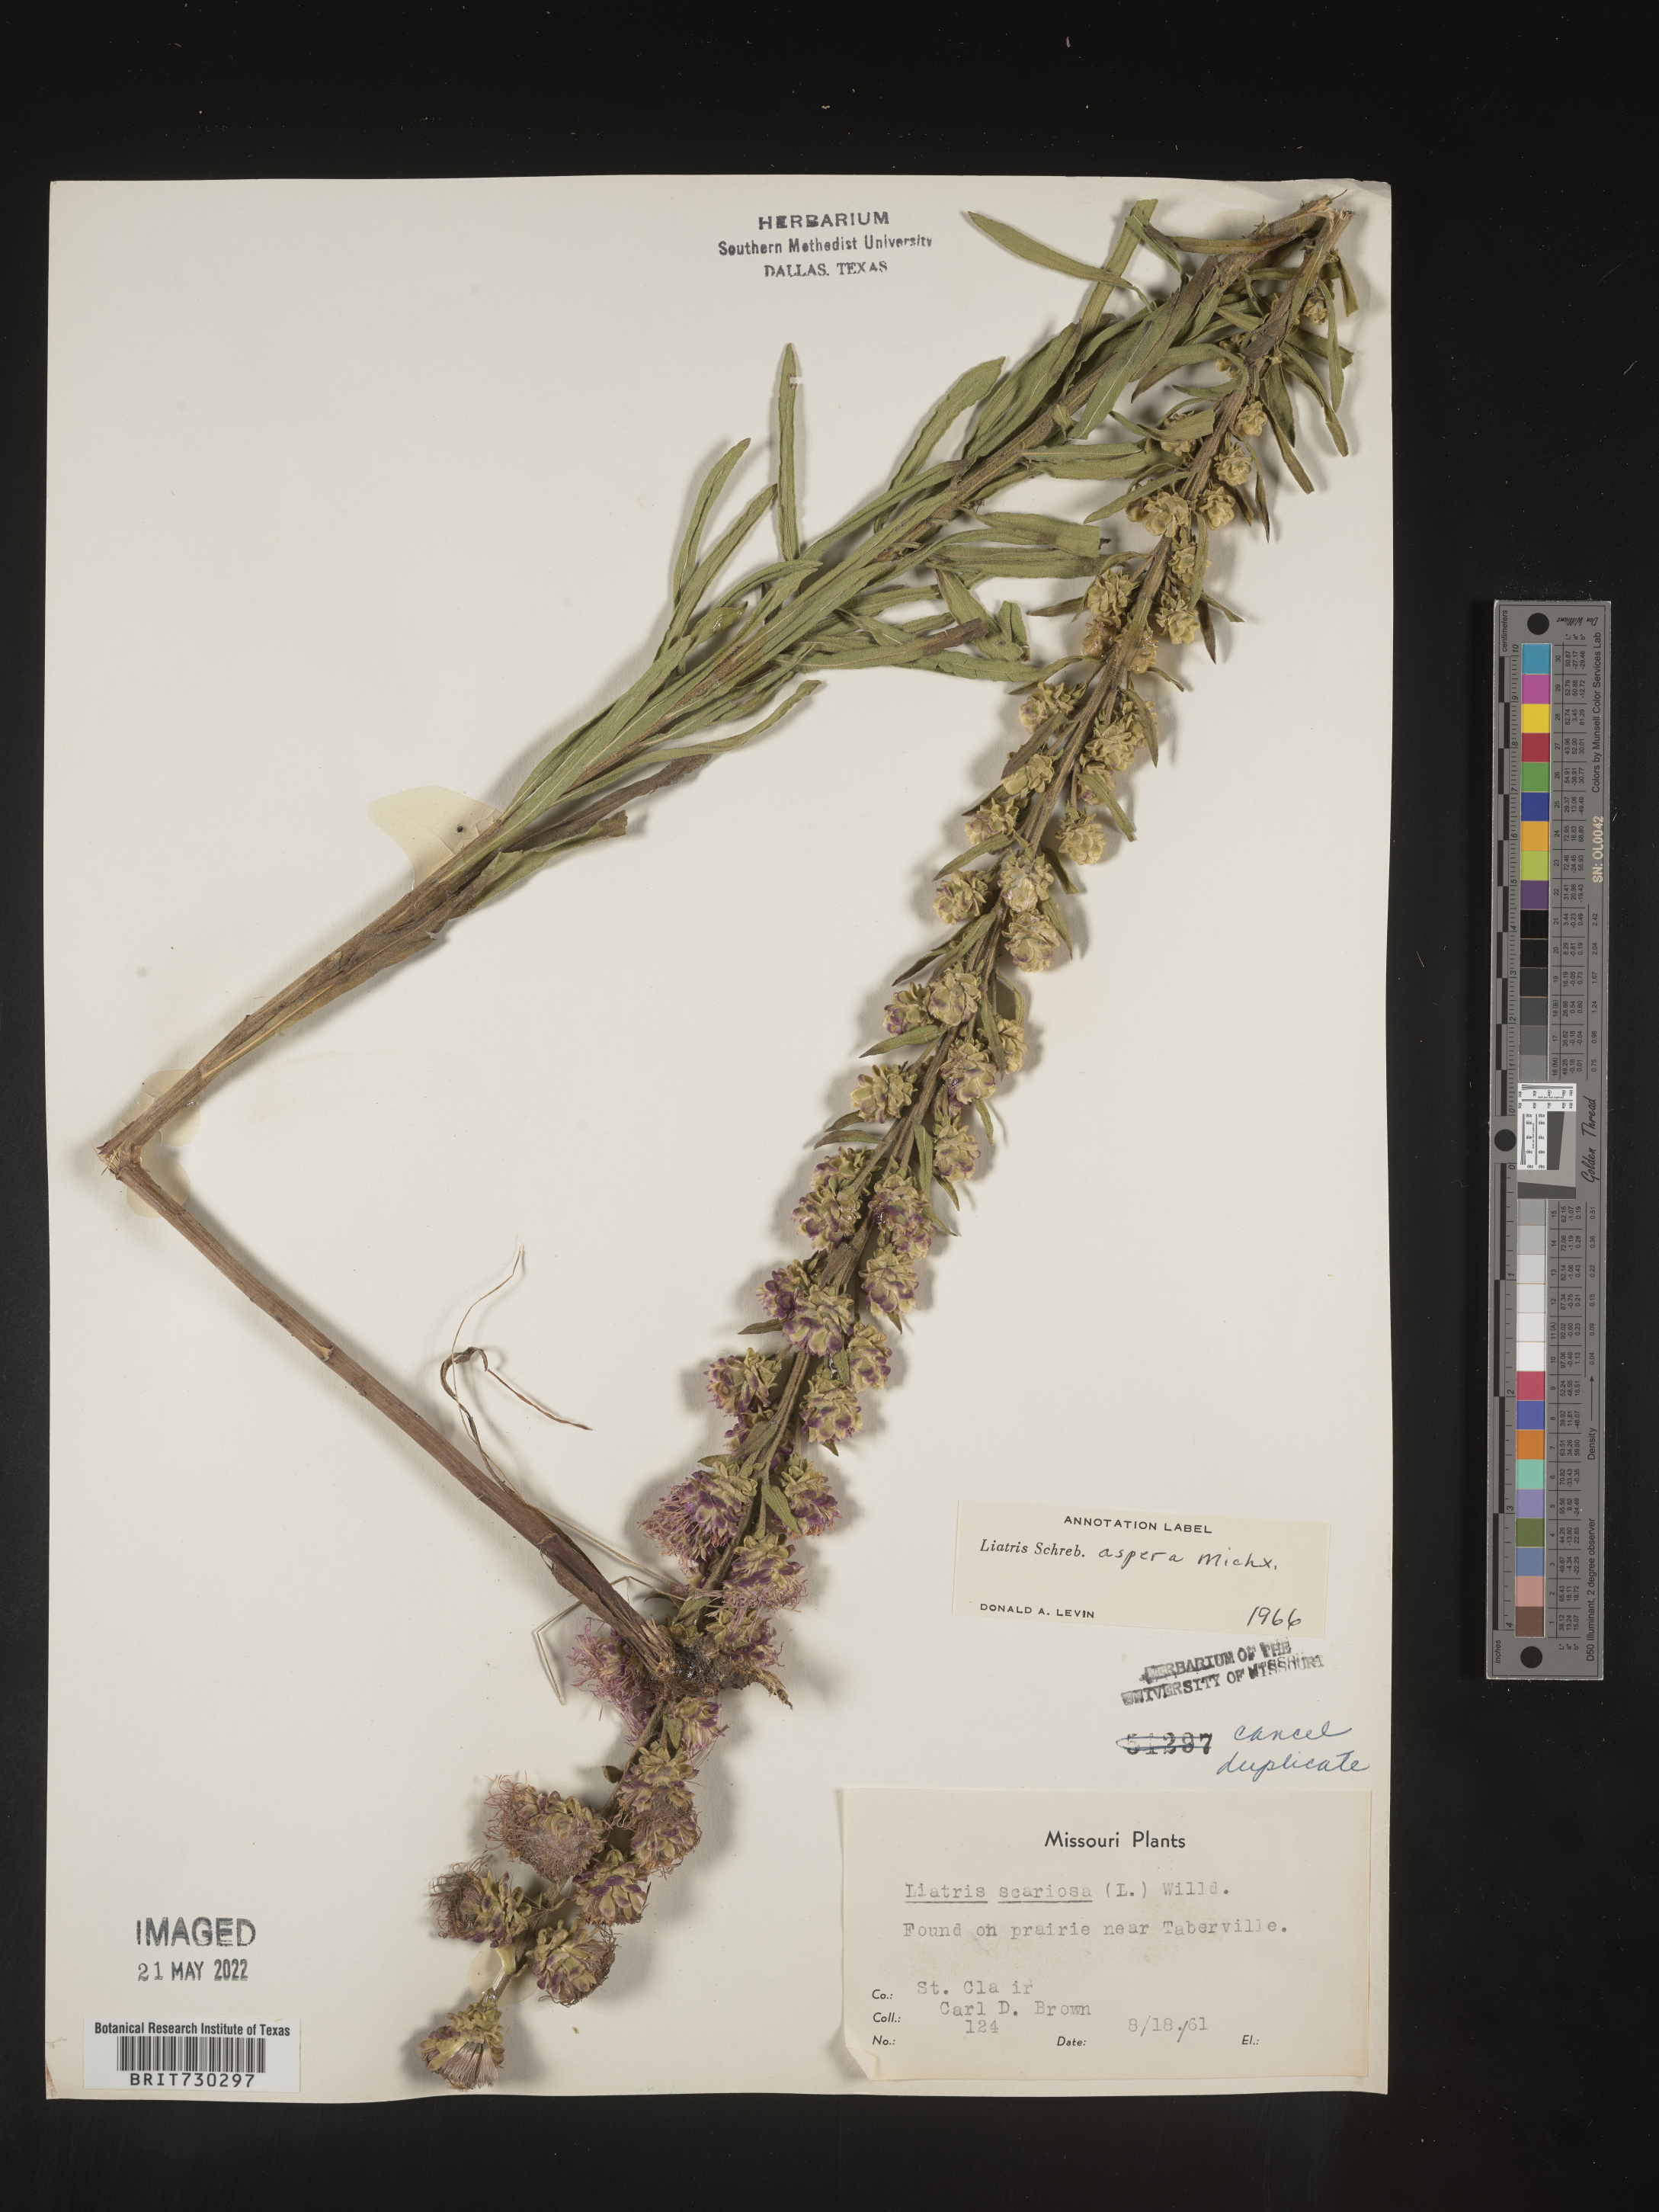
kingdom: Plantae
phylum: Tracheophyta
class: Magnoliopsida
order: Asterales
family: Asteraceae
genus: Liatris
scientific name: Liatris aspera
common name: Lacerate blazing-star
